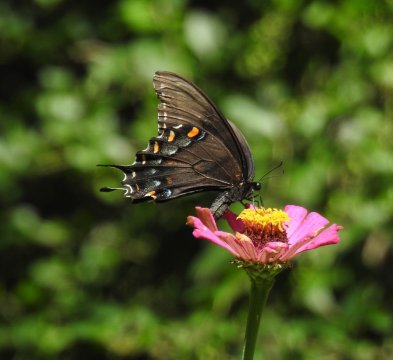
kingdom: Animalia
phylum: Arthropoda
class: Insecta
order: Lepidoptera
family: Papilionidae
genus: Pterourus
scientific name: Pterourus glaucus
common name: Eastern Tiger Swallowtail
